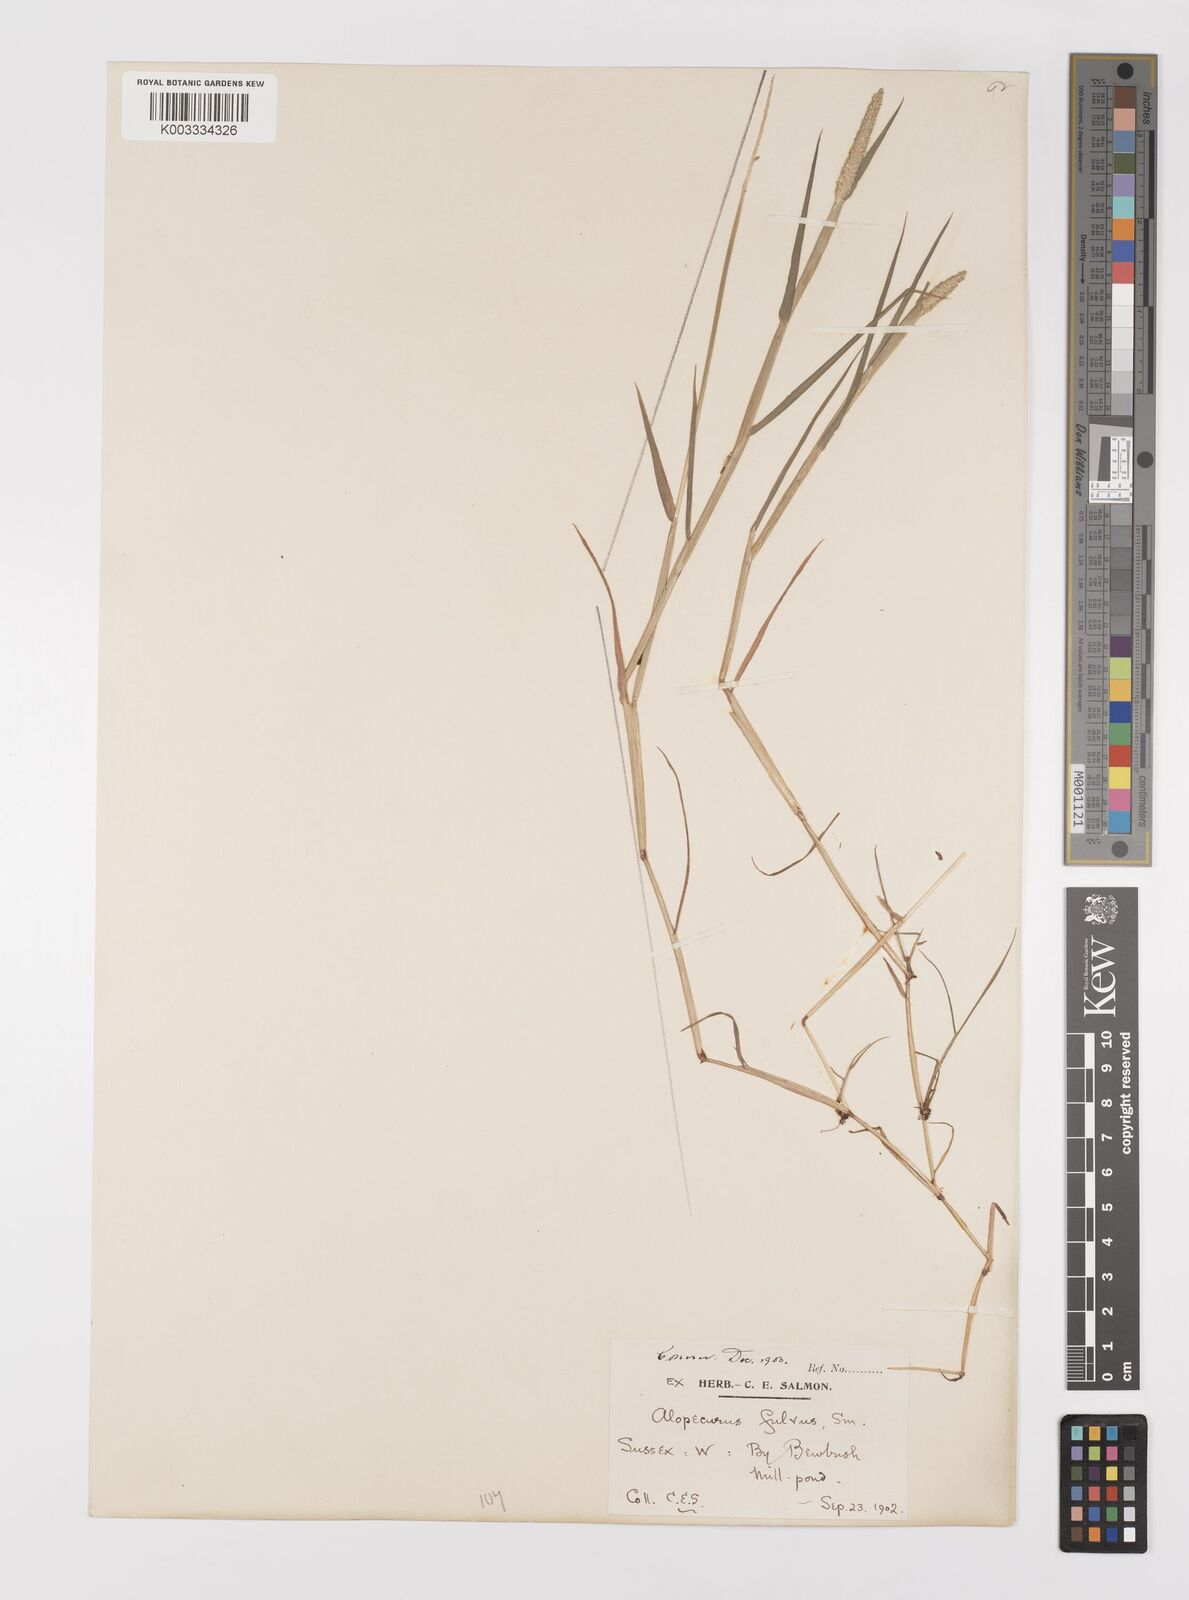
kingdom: Plantae
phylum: Tracheophyta
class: Liliopsida
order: Poales
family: Poaceae
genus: Alopecurus
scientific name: Alopecurus aequalis
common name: Orange foxtail
